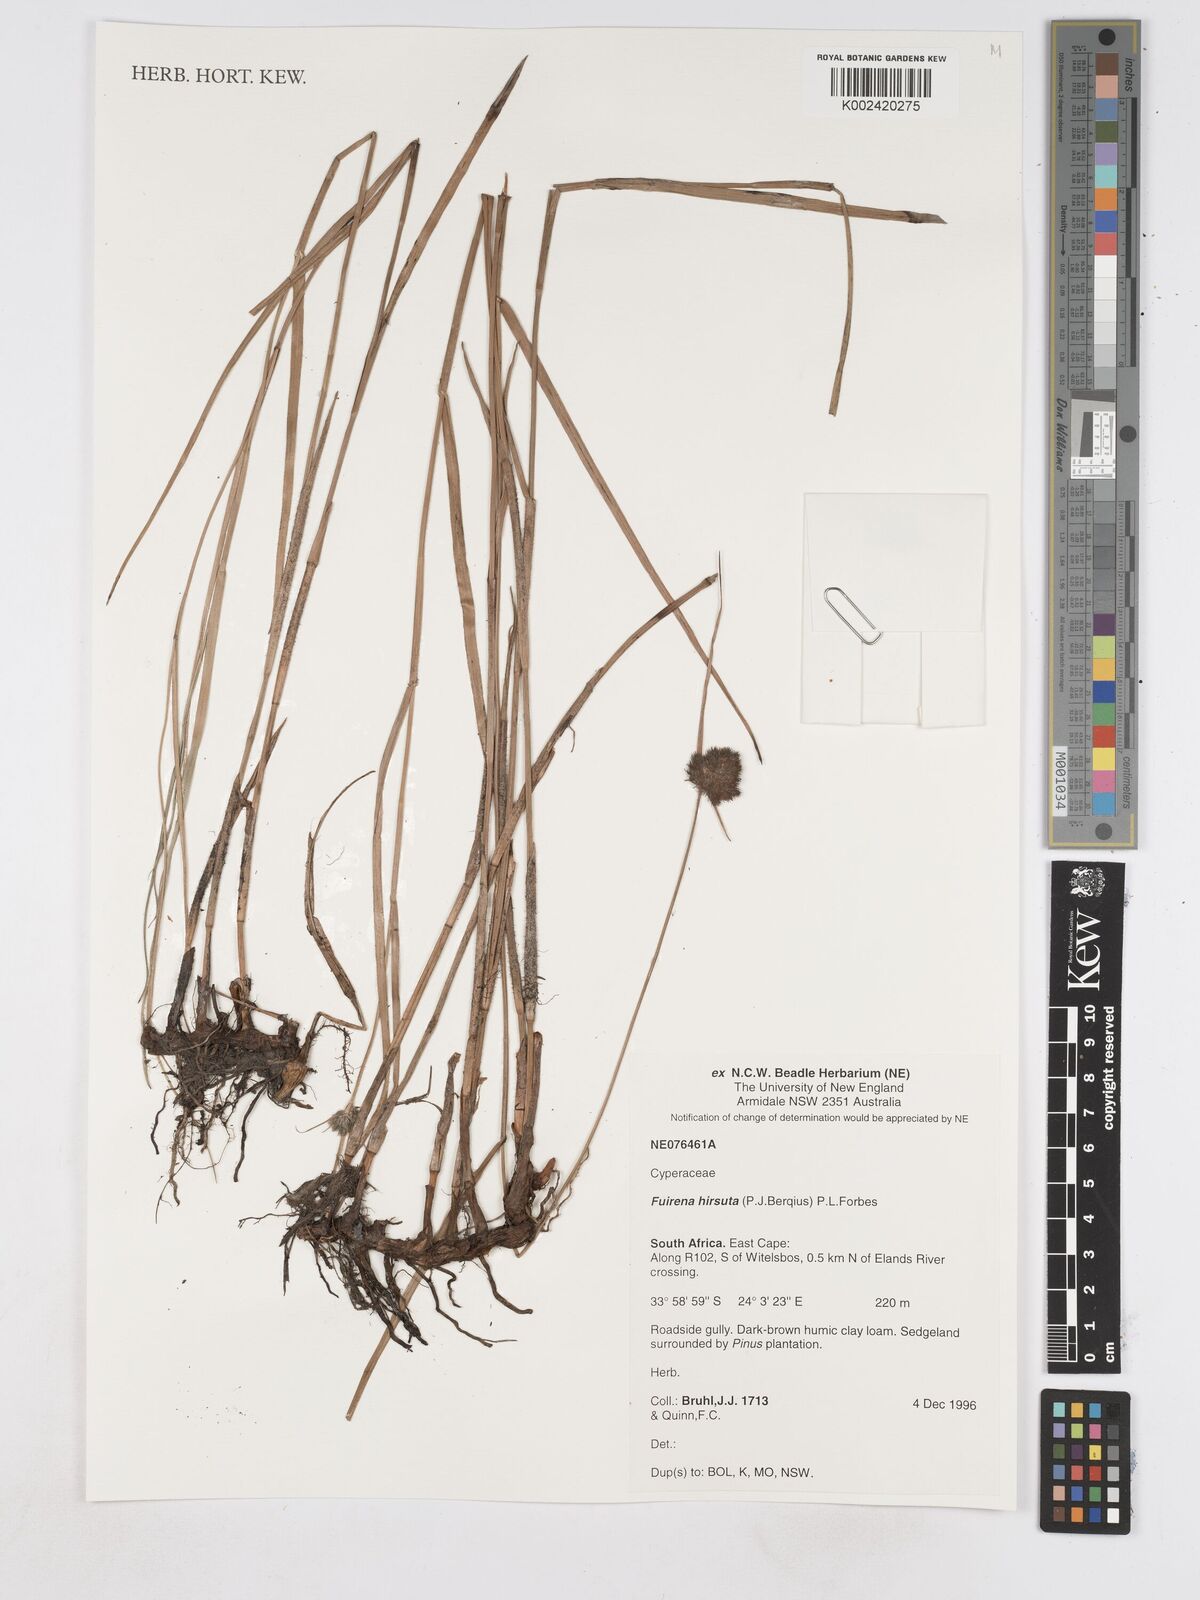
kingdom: Plantae
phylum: Tracheophyta
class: Liliopsida
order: Poales
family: Cyperaceae
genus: Fuirena
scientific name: Fuirena hirsuta
